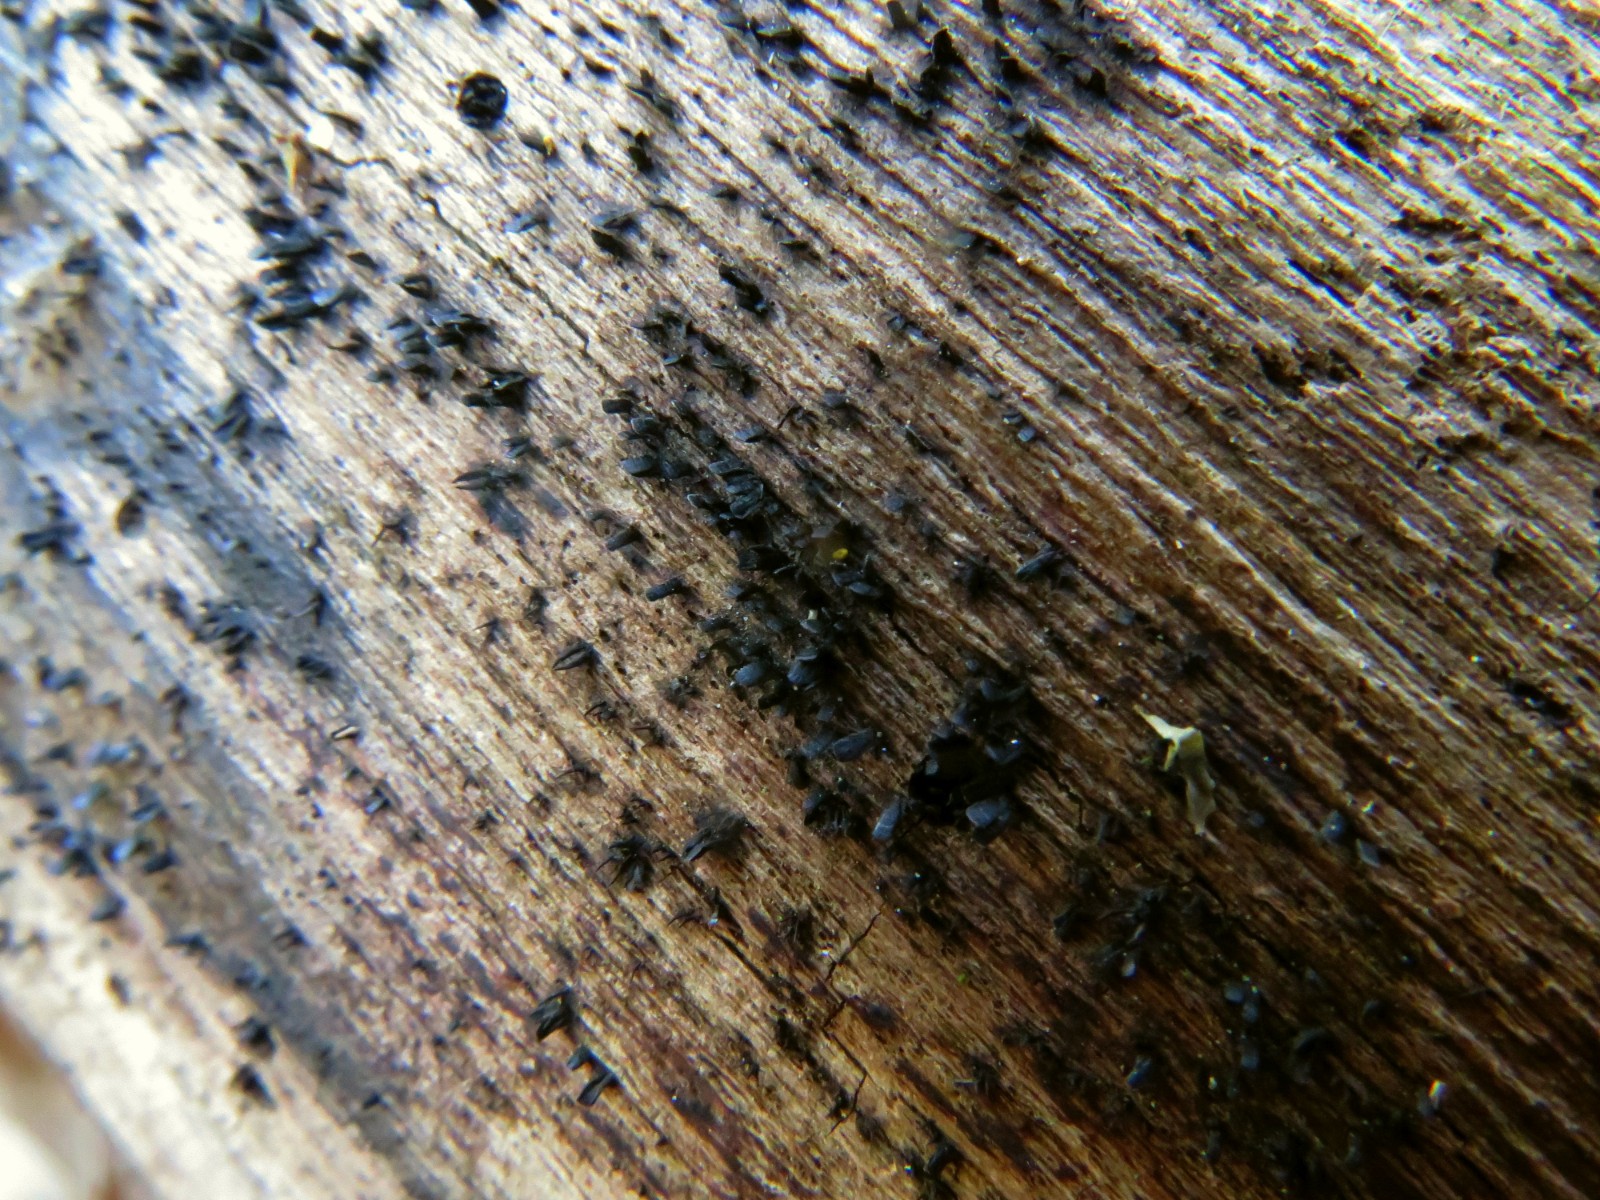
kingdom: Fungi
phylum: Ascomycota
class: Eurotiomycetes
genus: Glyphium
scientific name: Glyphium elatum
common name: kuløkse
